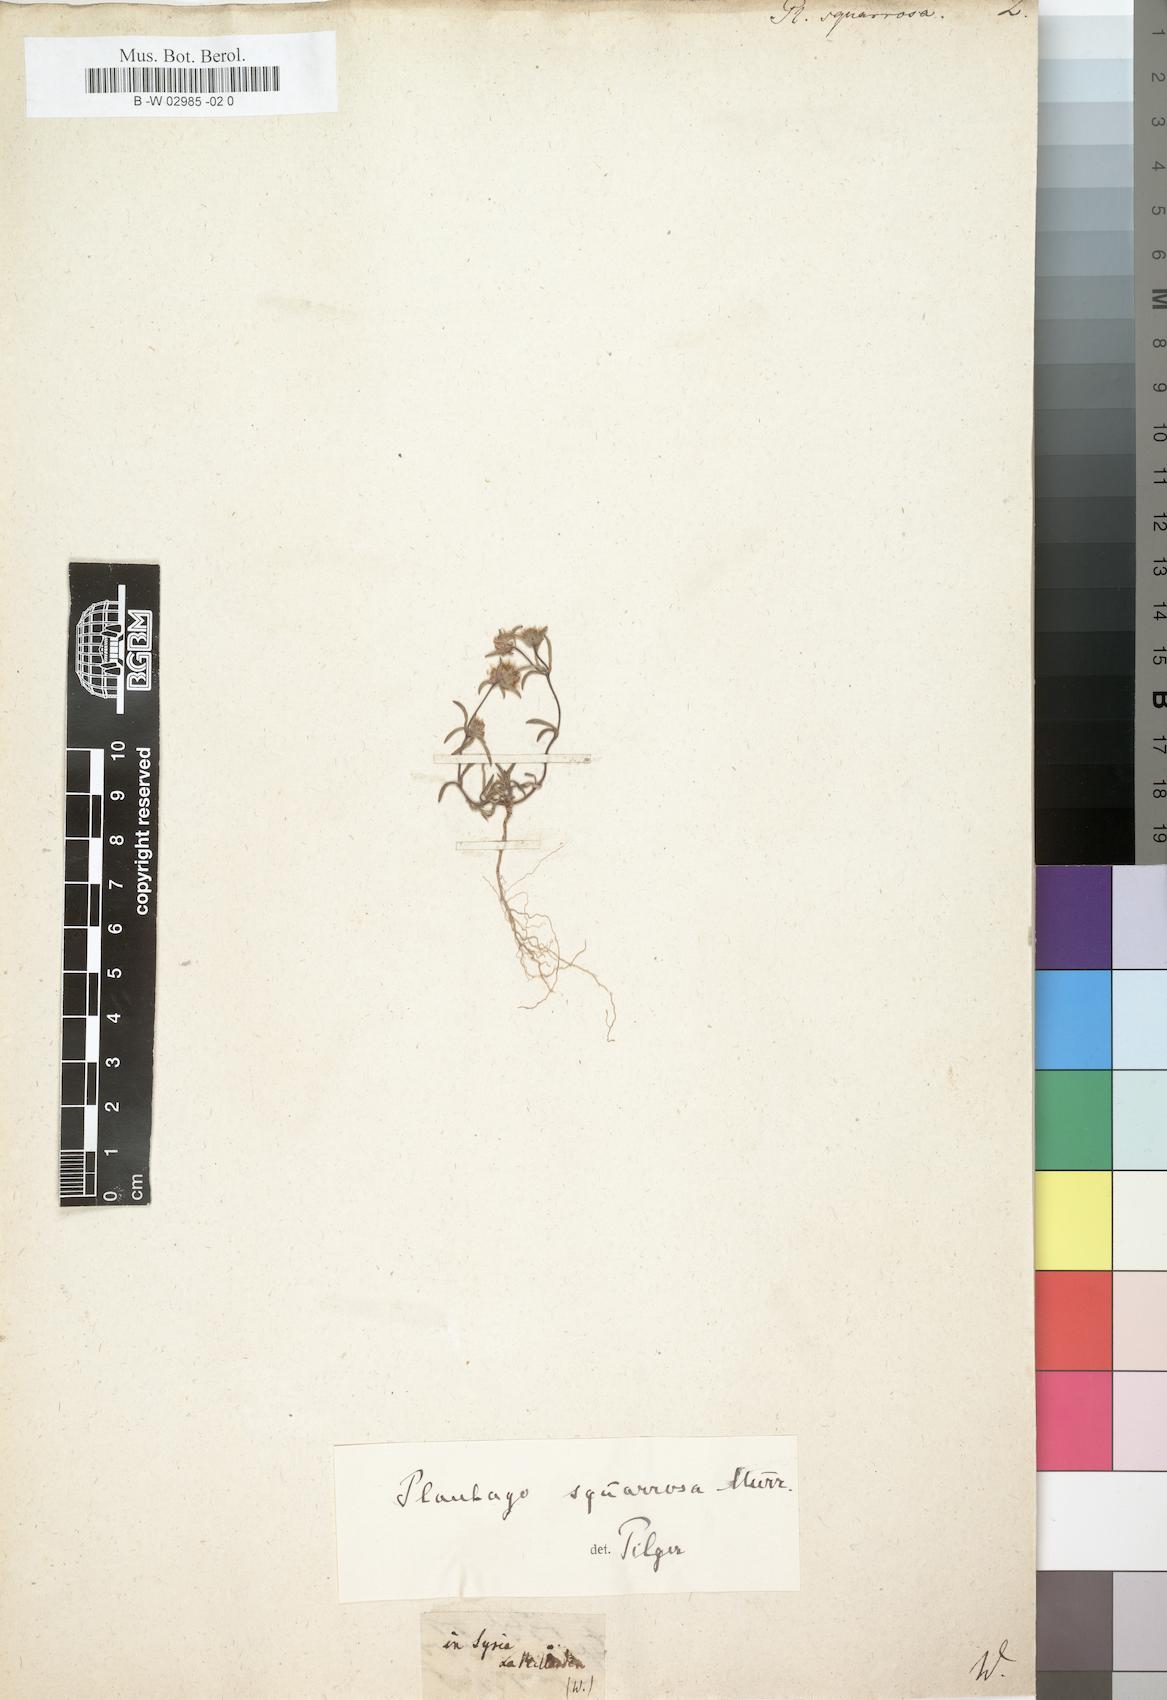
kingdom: Plantae
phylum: Tracheophyta
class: Magnoliopsida
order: Lamiales
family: Plantaginaceae
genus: Plantago
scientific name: Plantago squarrosa
